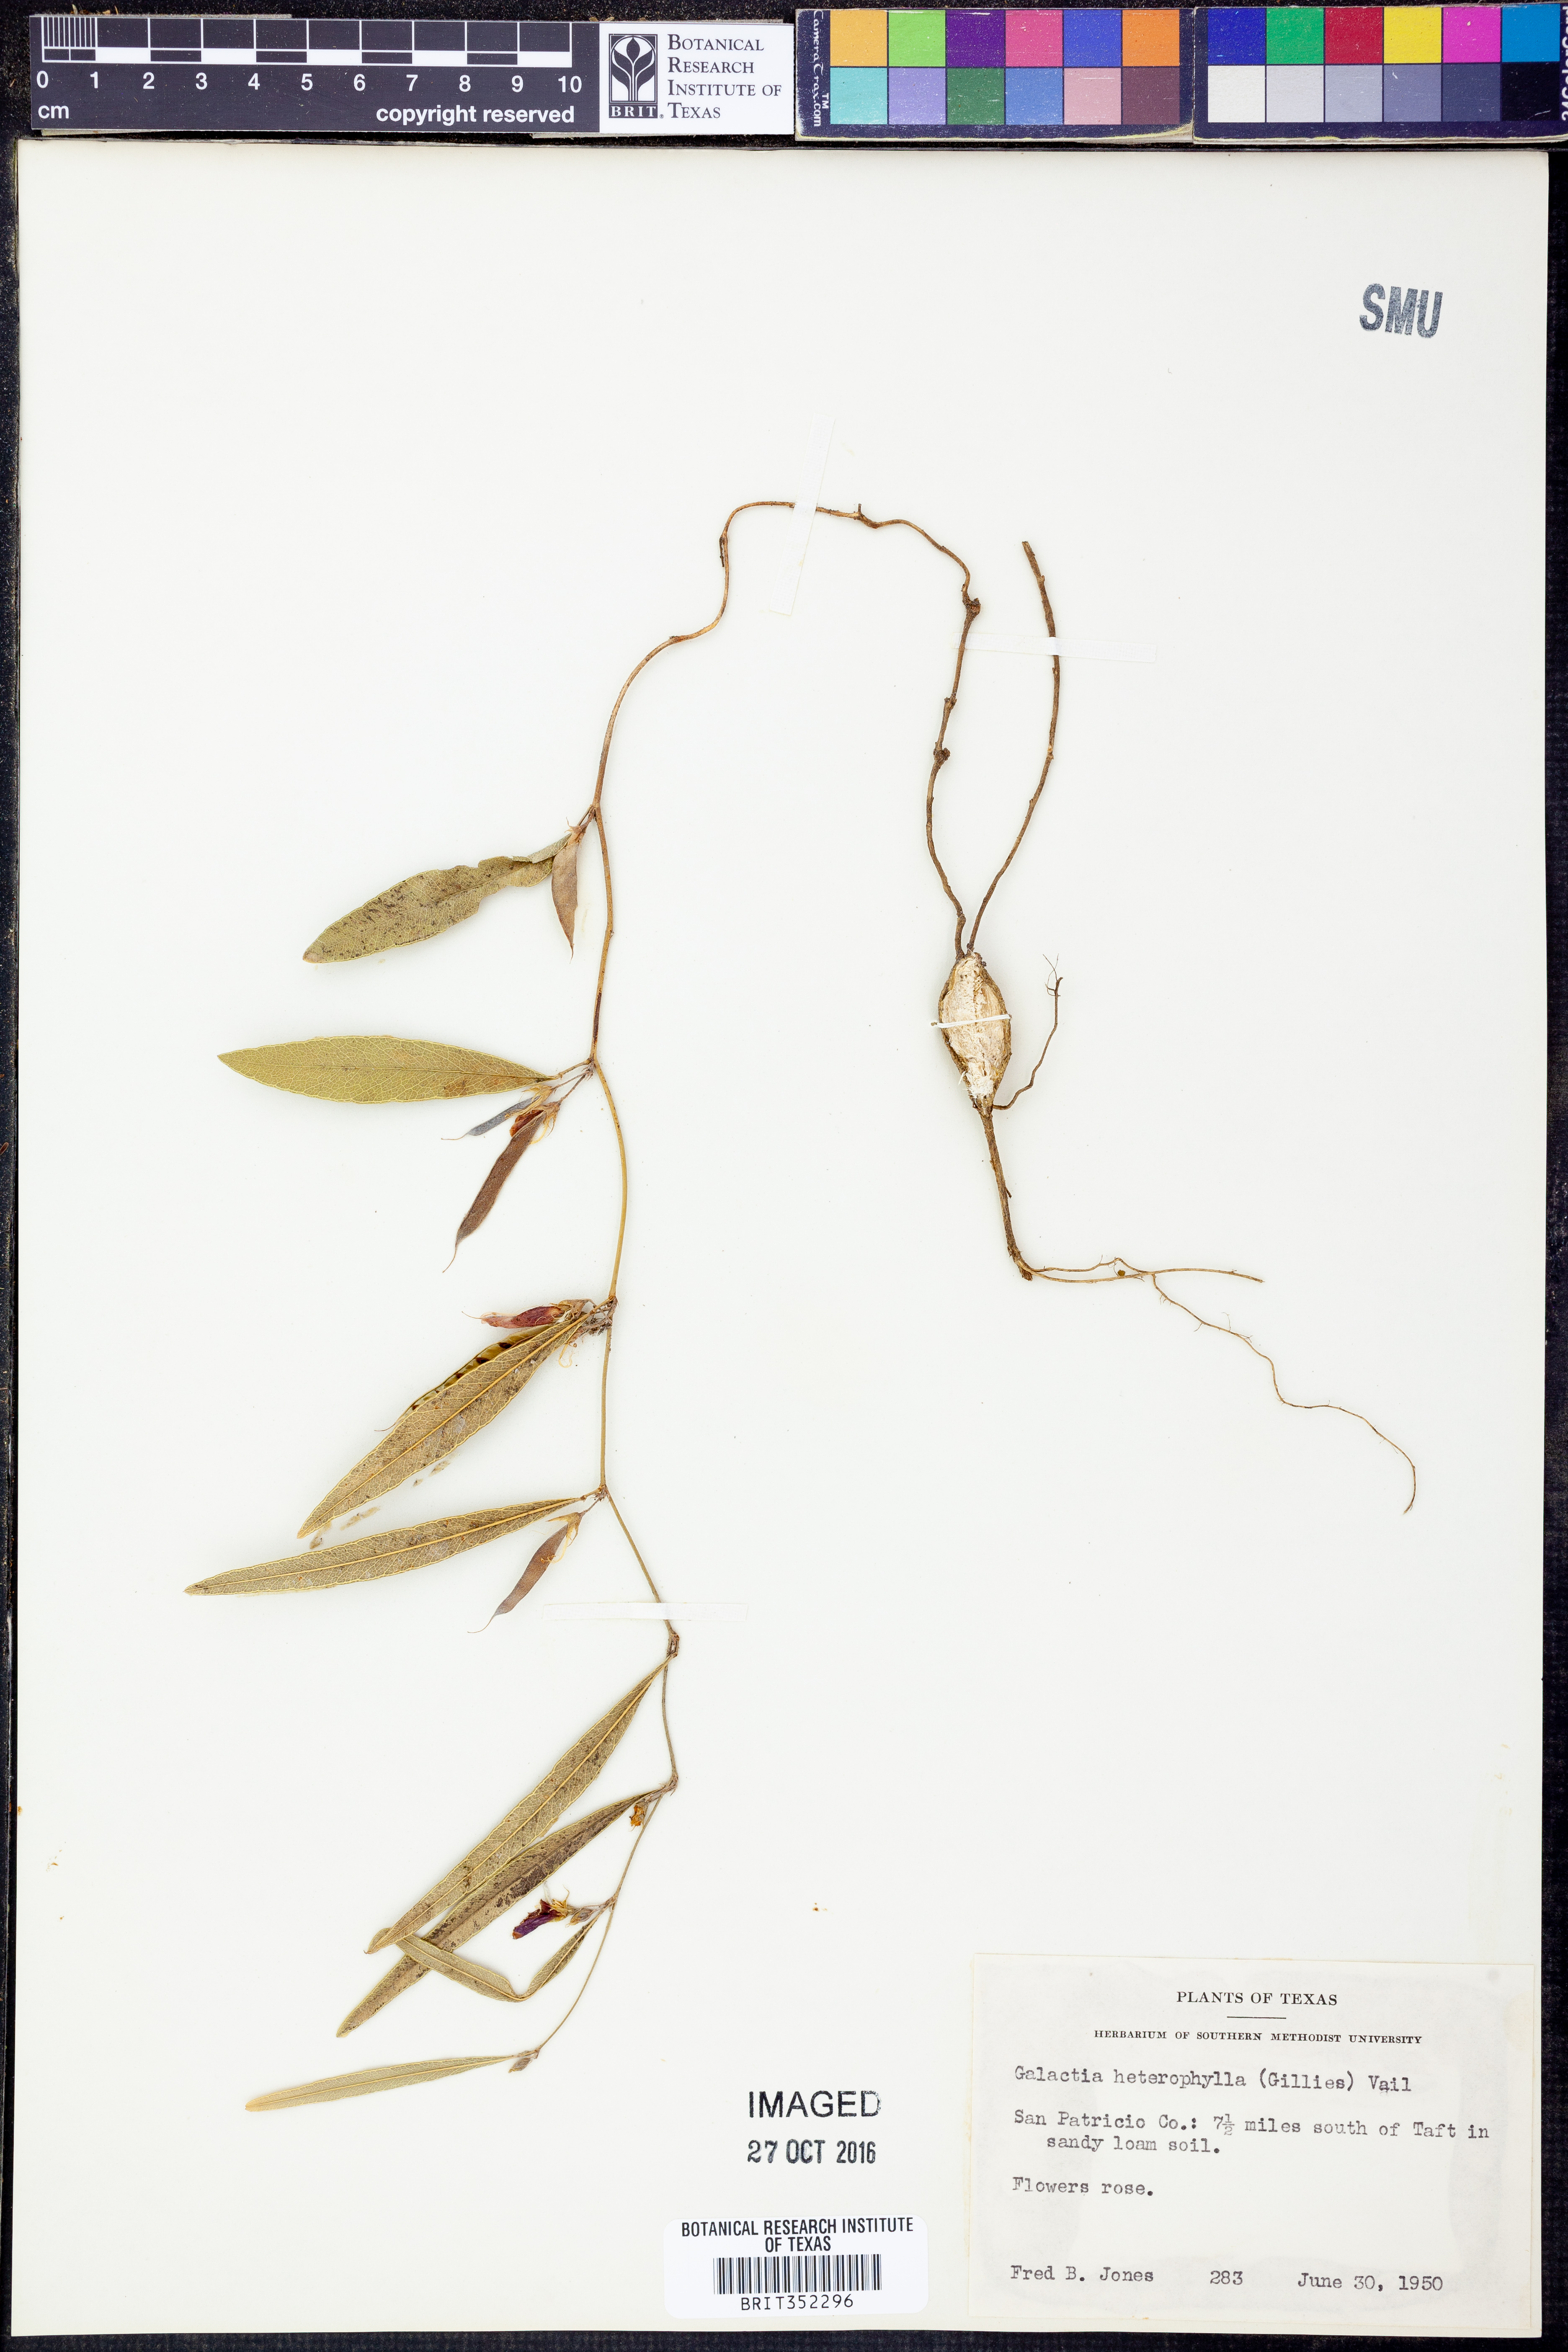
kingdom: Plantae
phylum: Tracheophyta
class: Magnoliopsida
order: Fabales
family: Fabaceae
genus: Galactia
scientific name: Galactia heterophylla
